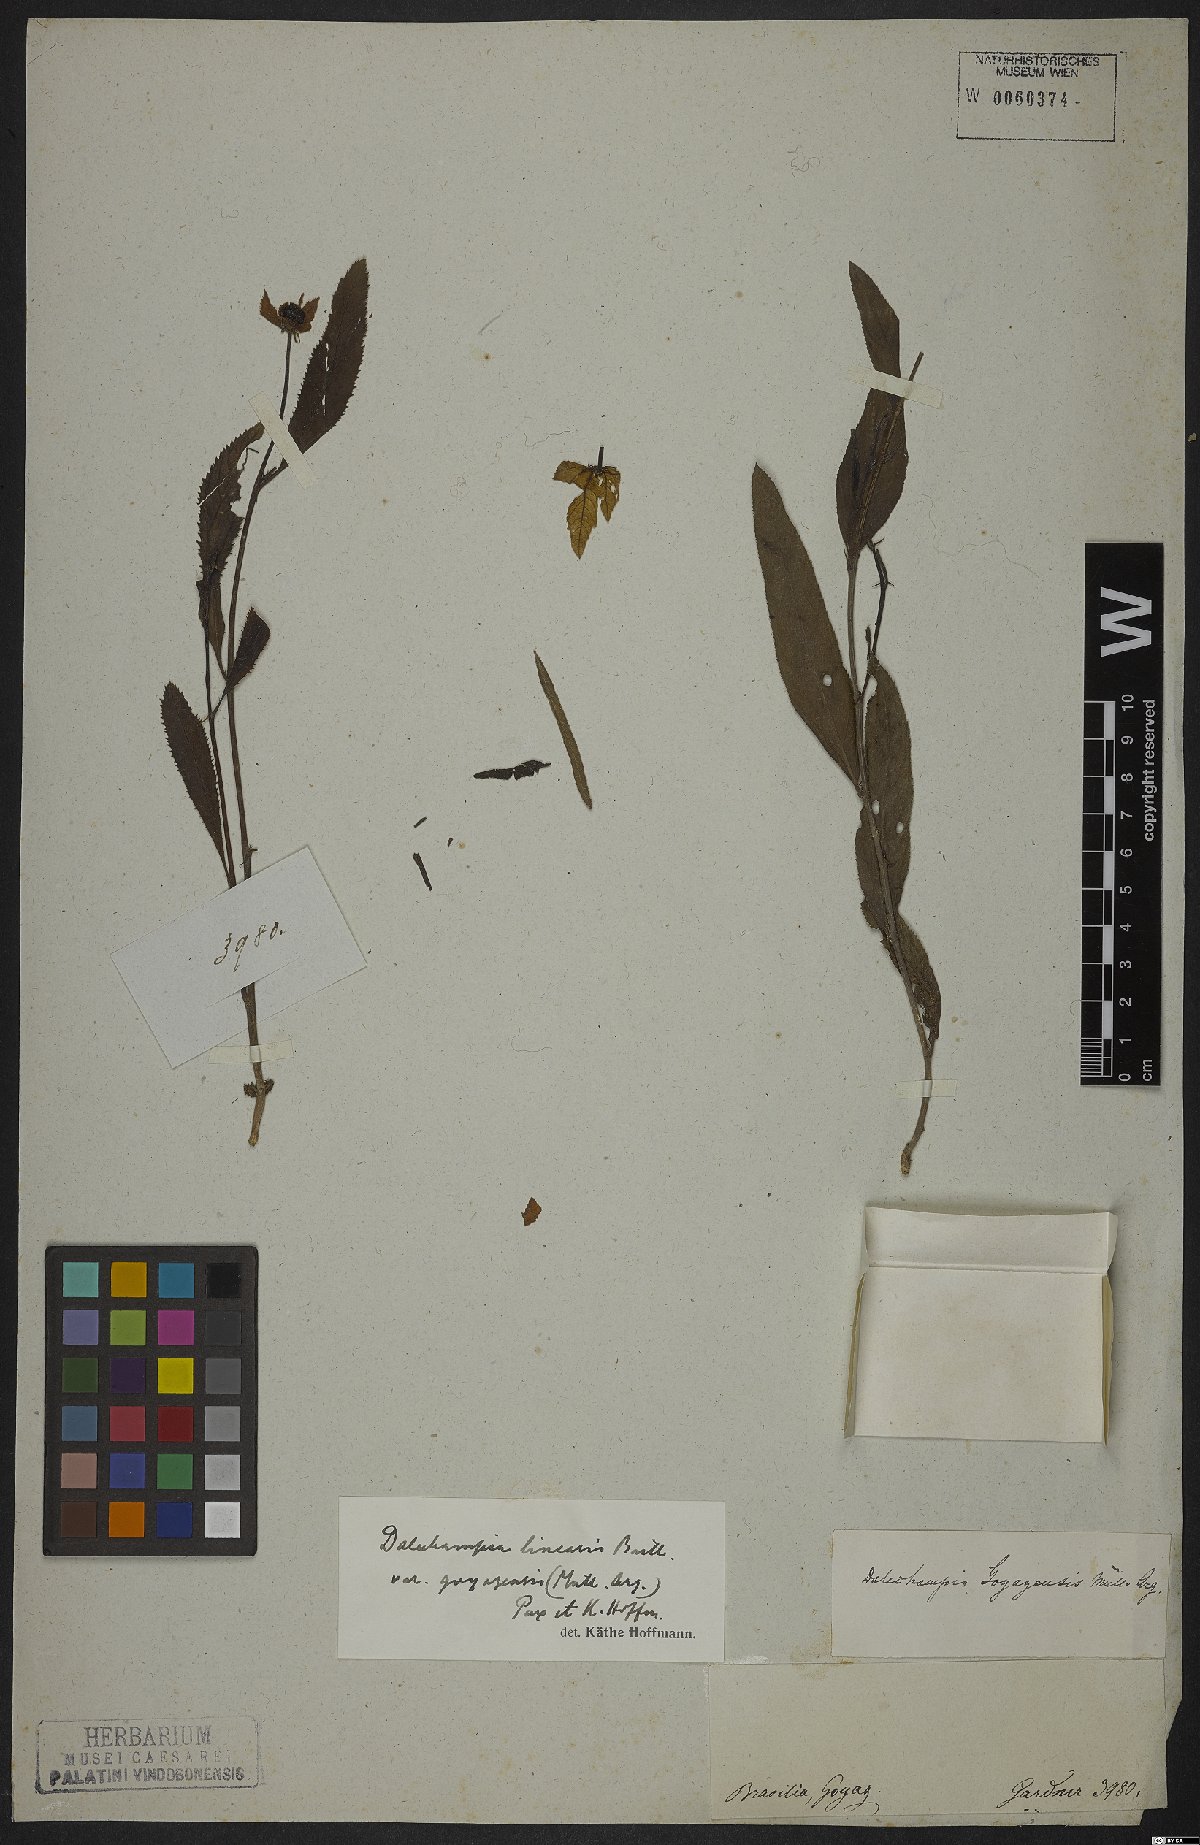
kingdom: Plantae
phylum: Tracheophyta
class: Magnoliopsida
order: Malpighiales
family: Euphorbiaceae
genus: Dalechampia
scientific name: Dalechampia linearis
